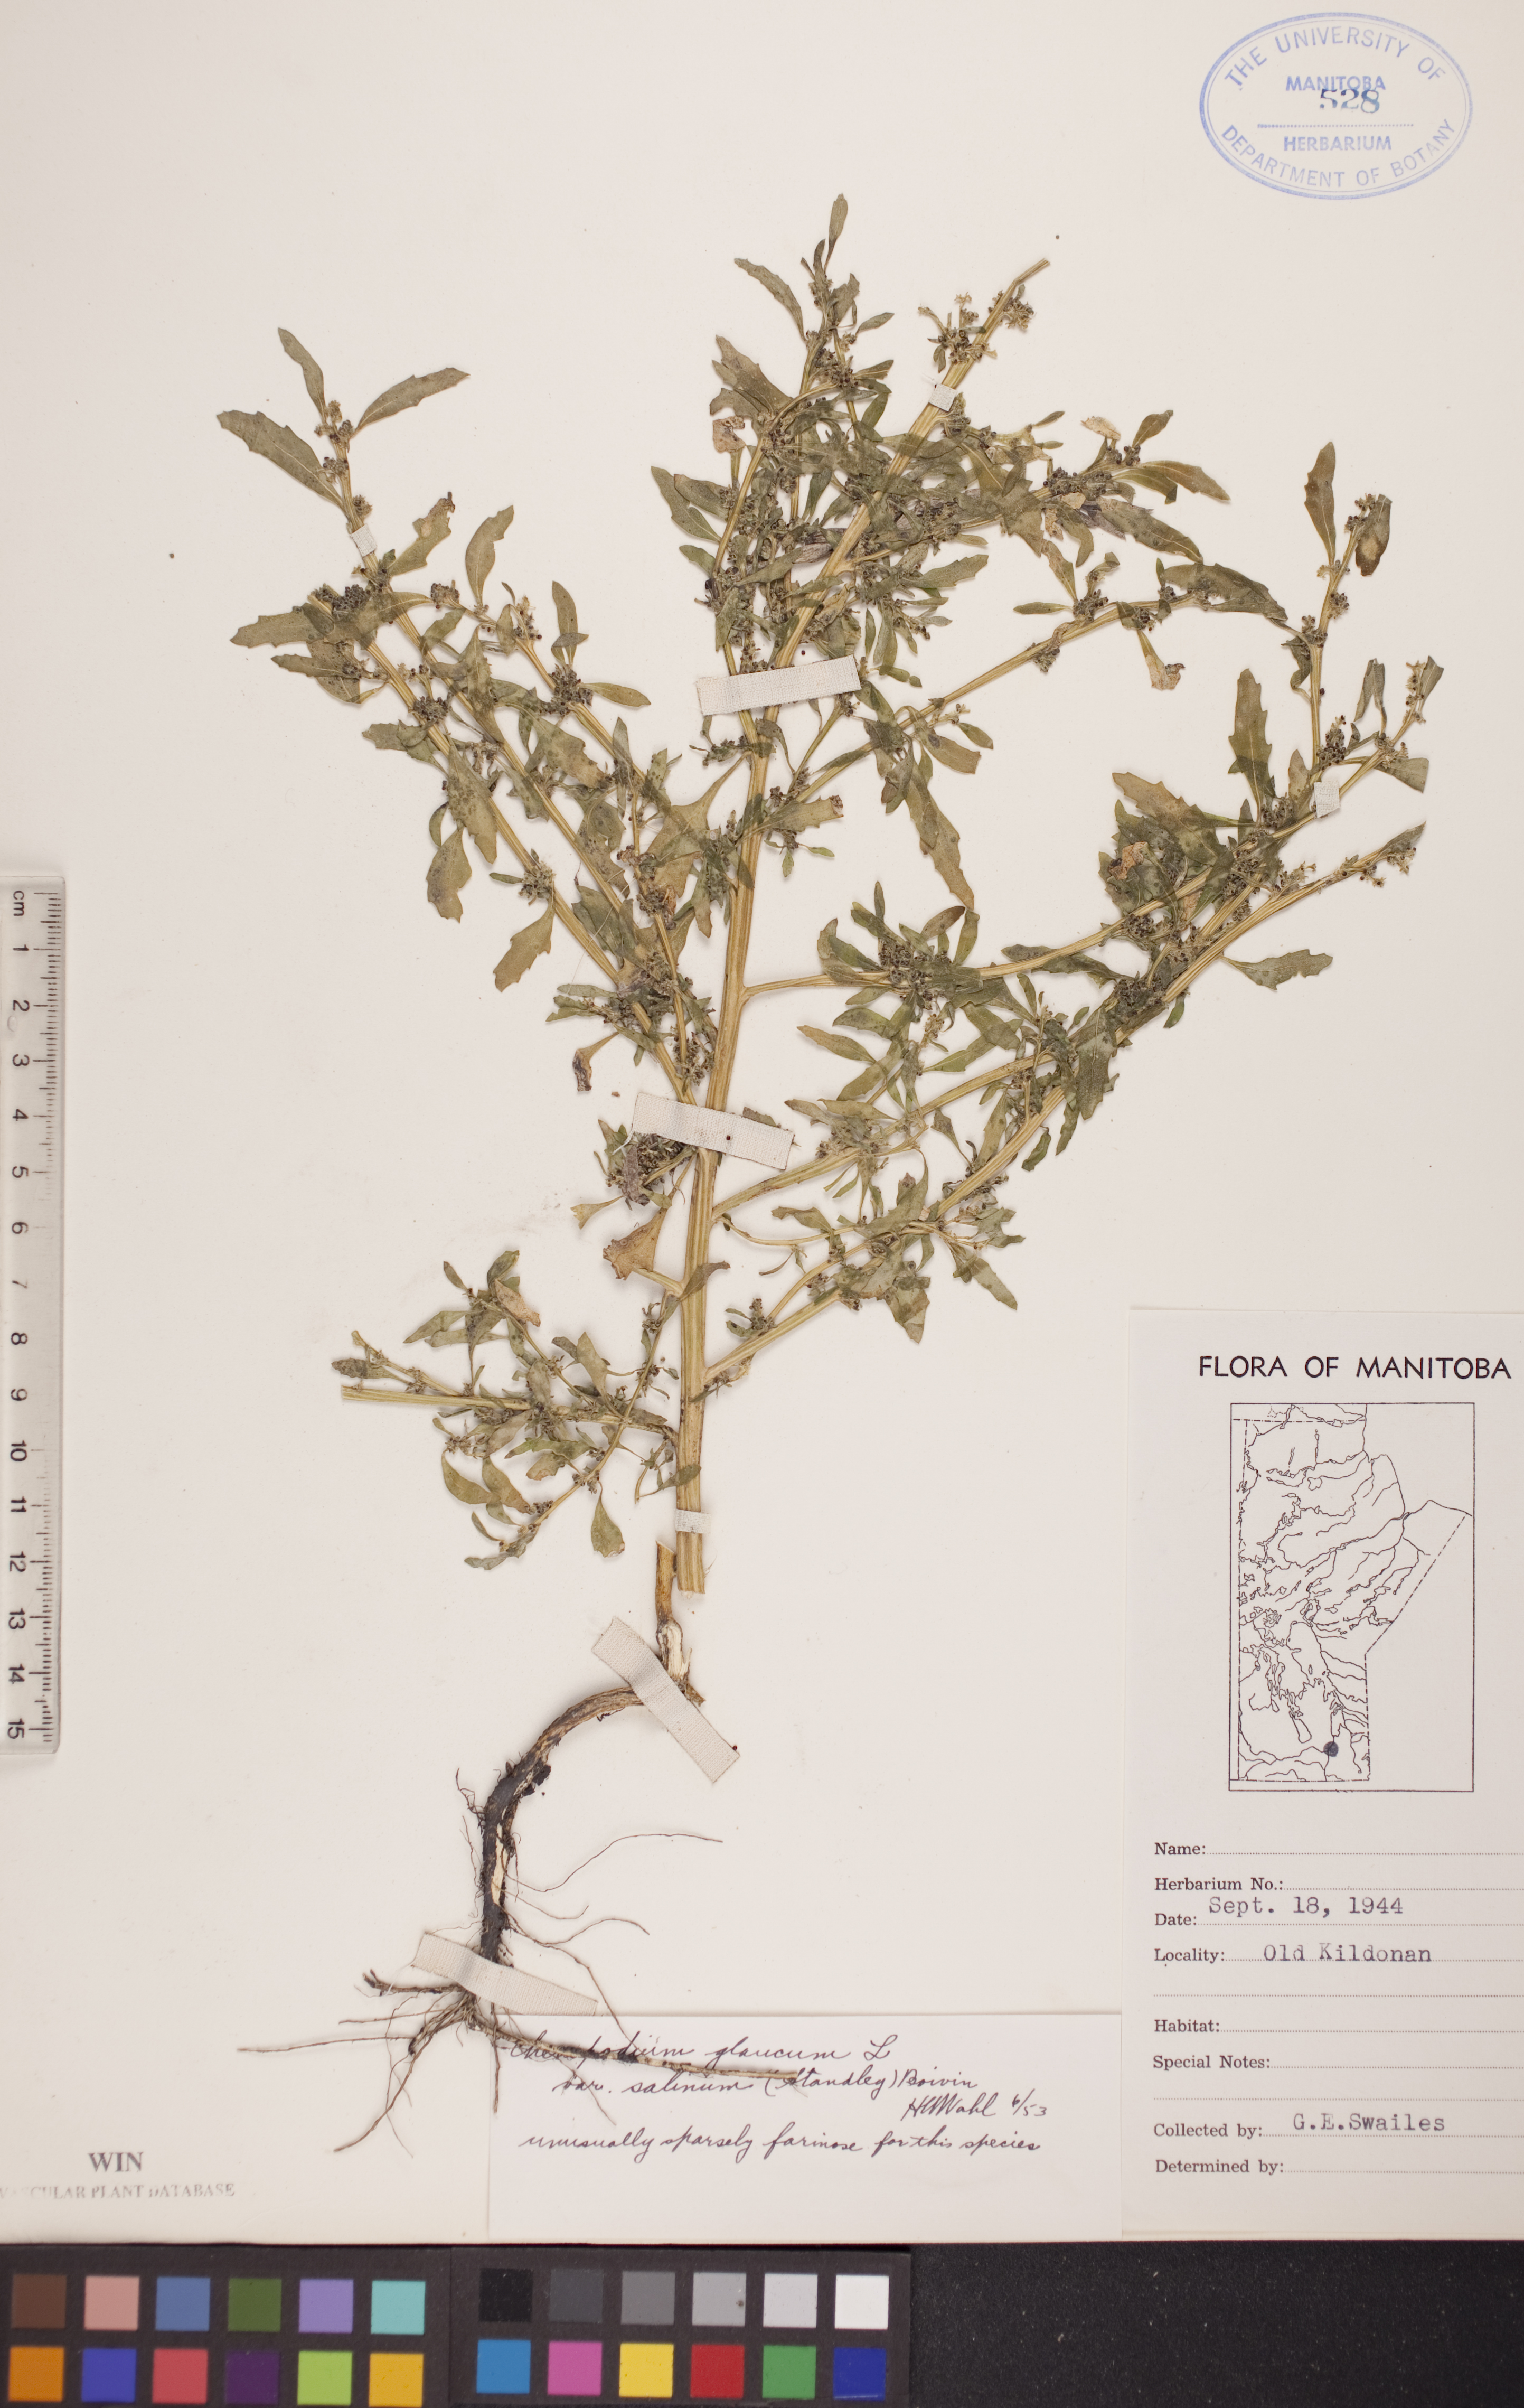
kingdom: Plantae
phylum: Tracheophyta
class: Magnoliopsida
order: Caryophyllales
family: Amaranthaceae
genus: Oxybasis
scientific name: Oxybasis salina
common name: Rocky mountain goosefoot
